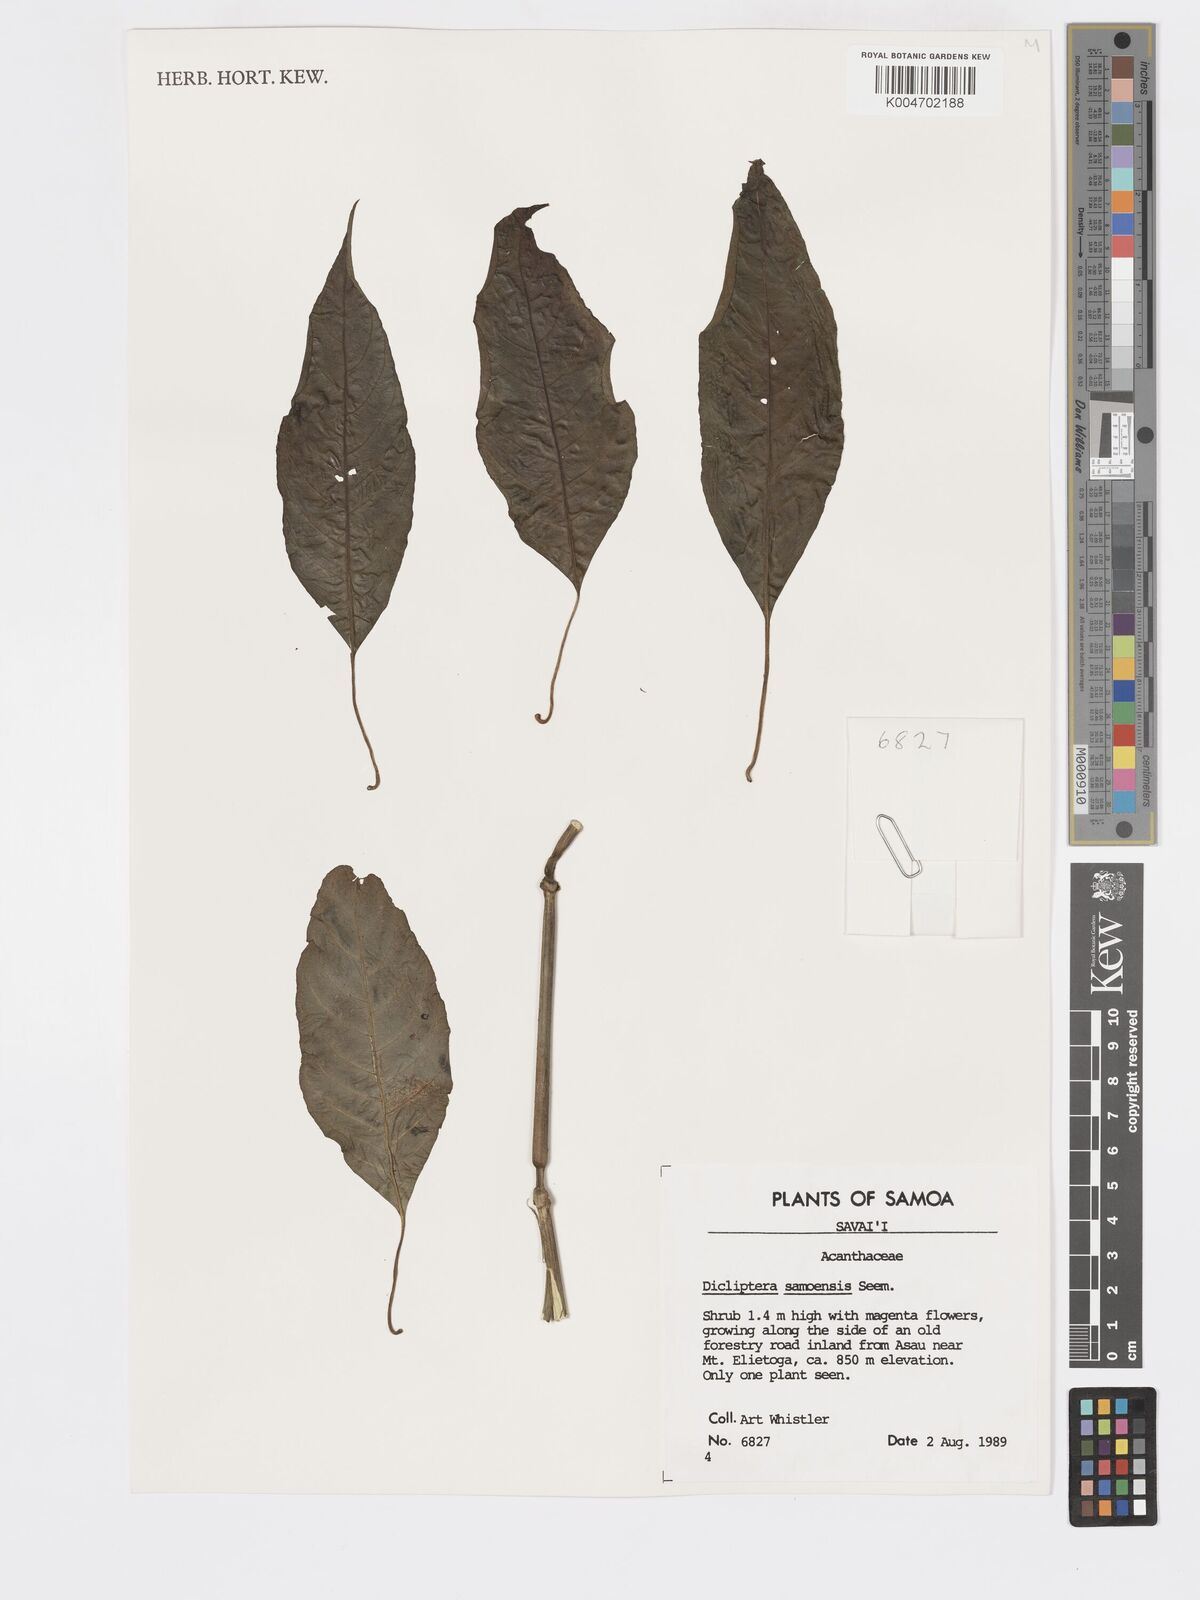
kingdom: Plantae
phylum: Tracheophyta
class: Magnoliopsida
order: Lamiales
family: Acanthaceae
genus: Dicliptera
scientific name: Dicliptera samoensis
